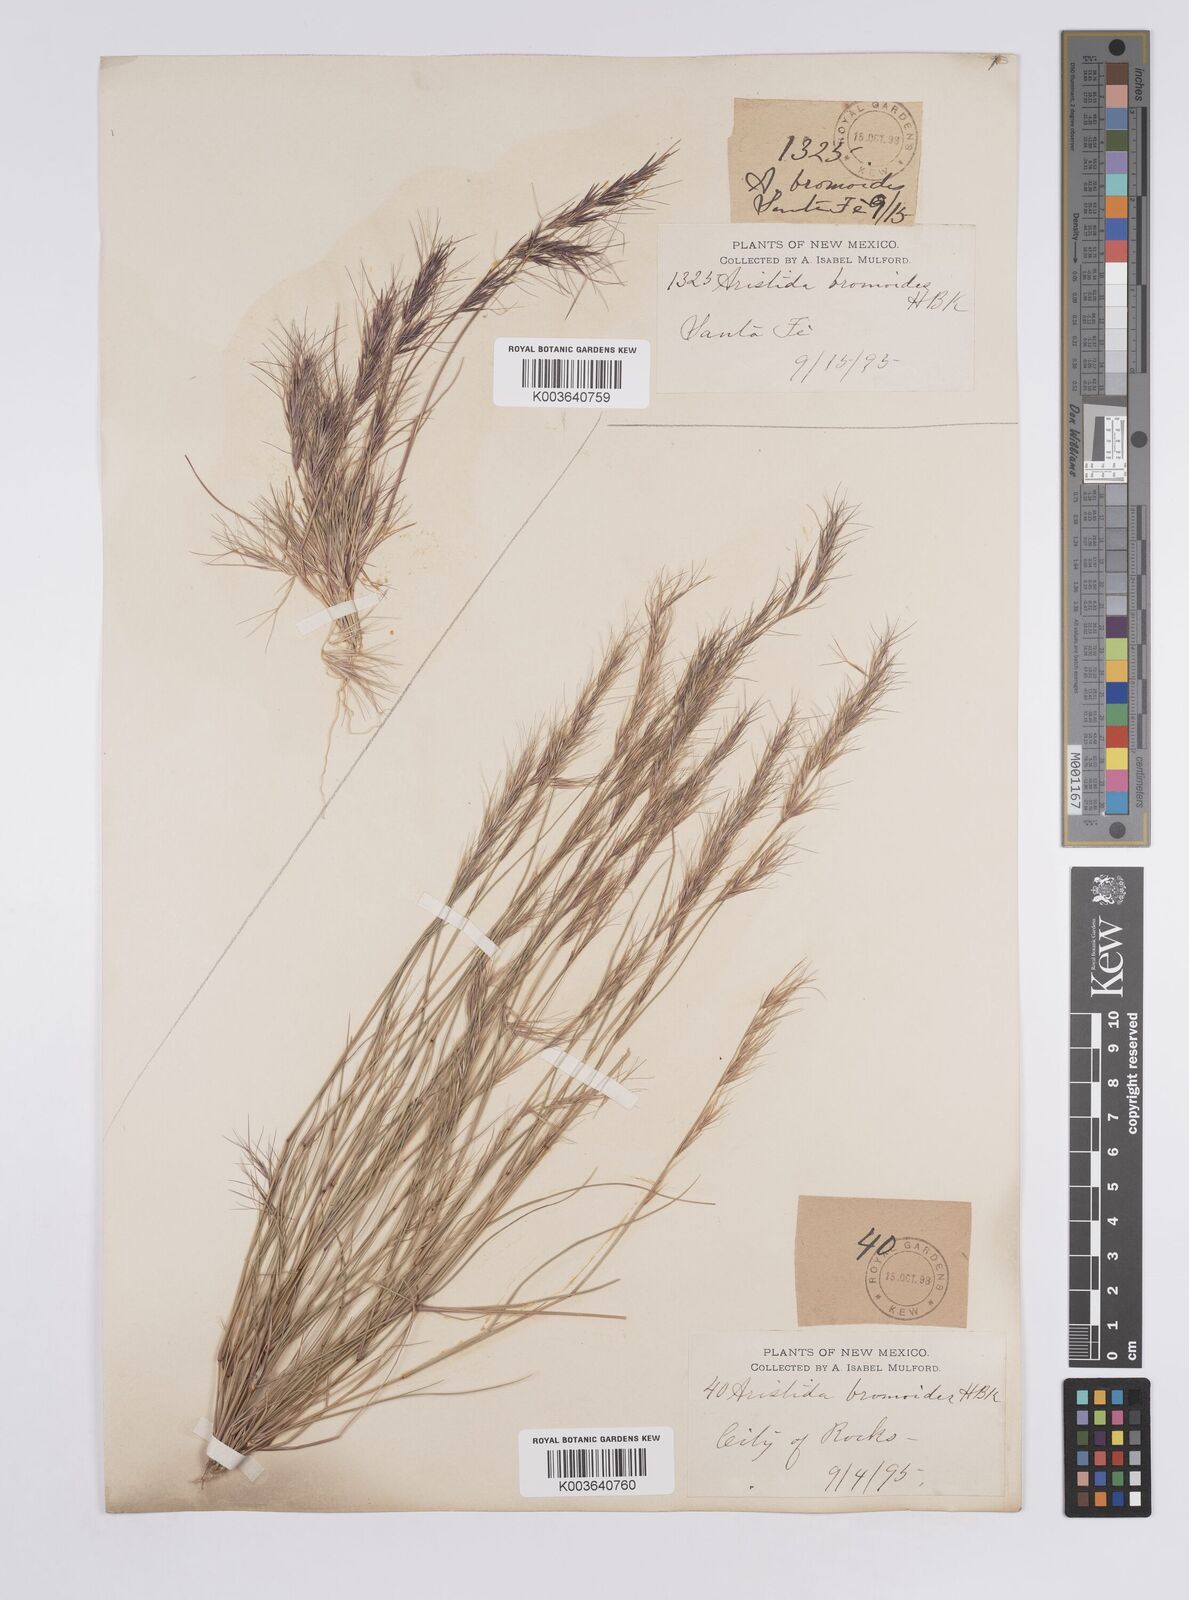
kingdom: Plantae
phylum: Tracheophyta
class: Liliopsida
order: Poales
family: Poaceae
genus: Aristida
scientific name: Aristida adscensionis
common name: Sixweeks threeawn
